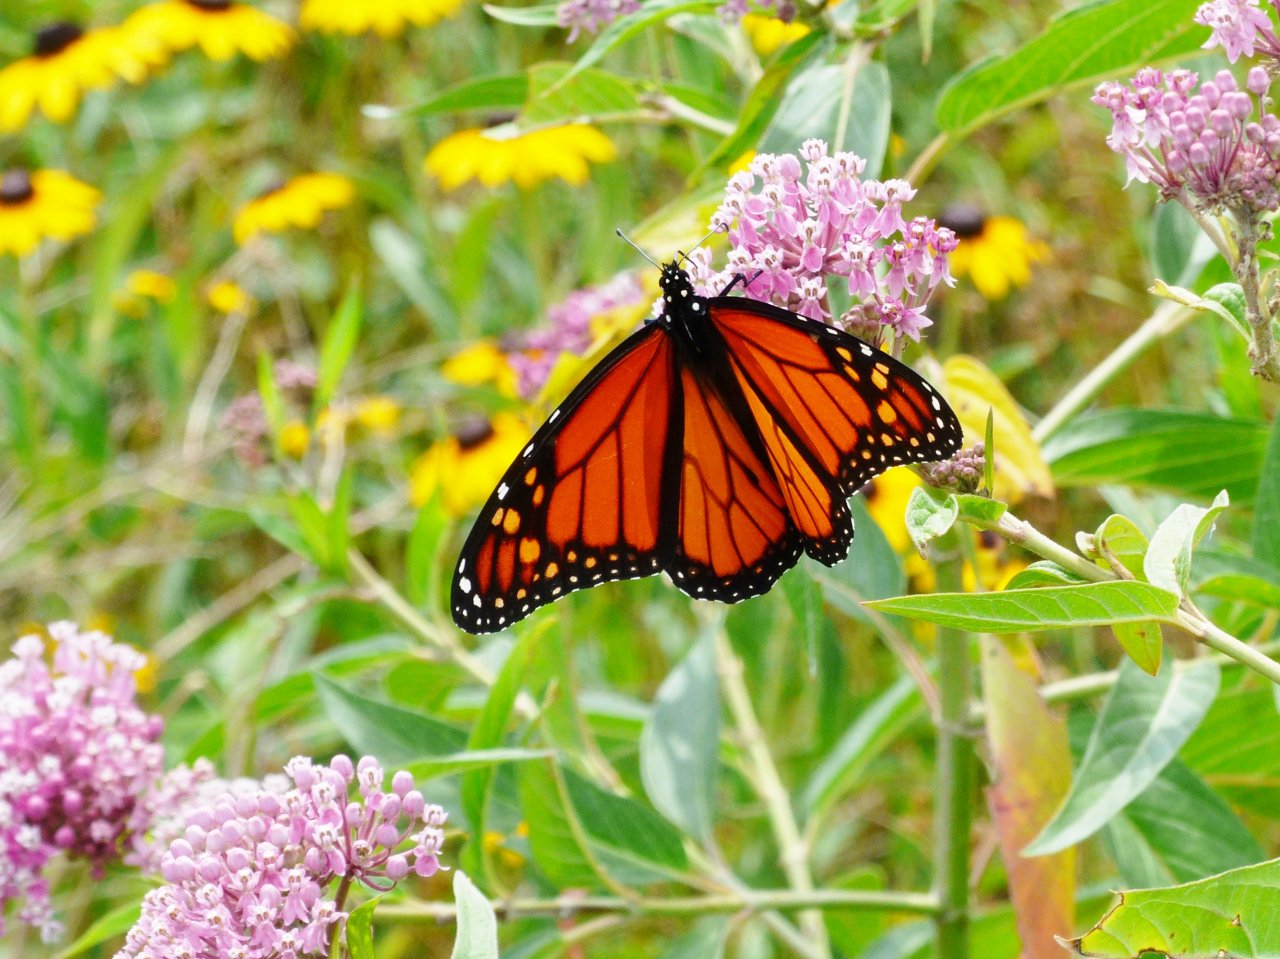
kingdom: Animalia
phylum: Arthropoda
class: Insecta
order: Lepidoptera
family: Nymphalidae
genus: Danaus
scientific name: Danaus plexippus
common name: Monarch
